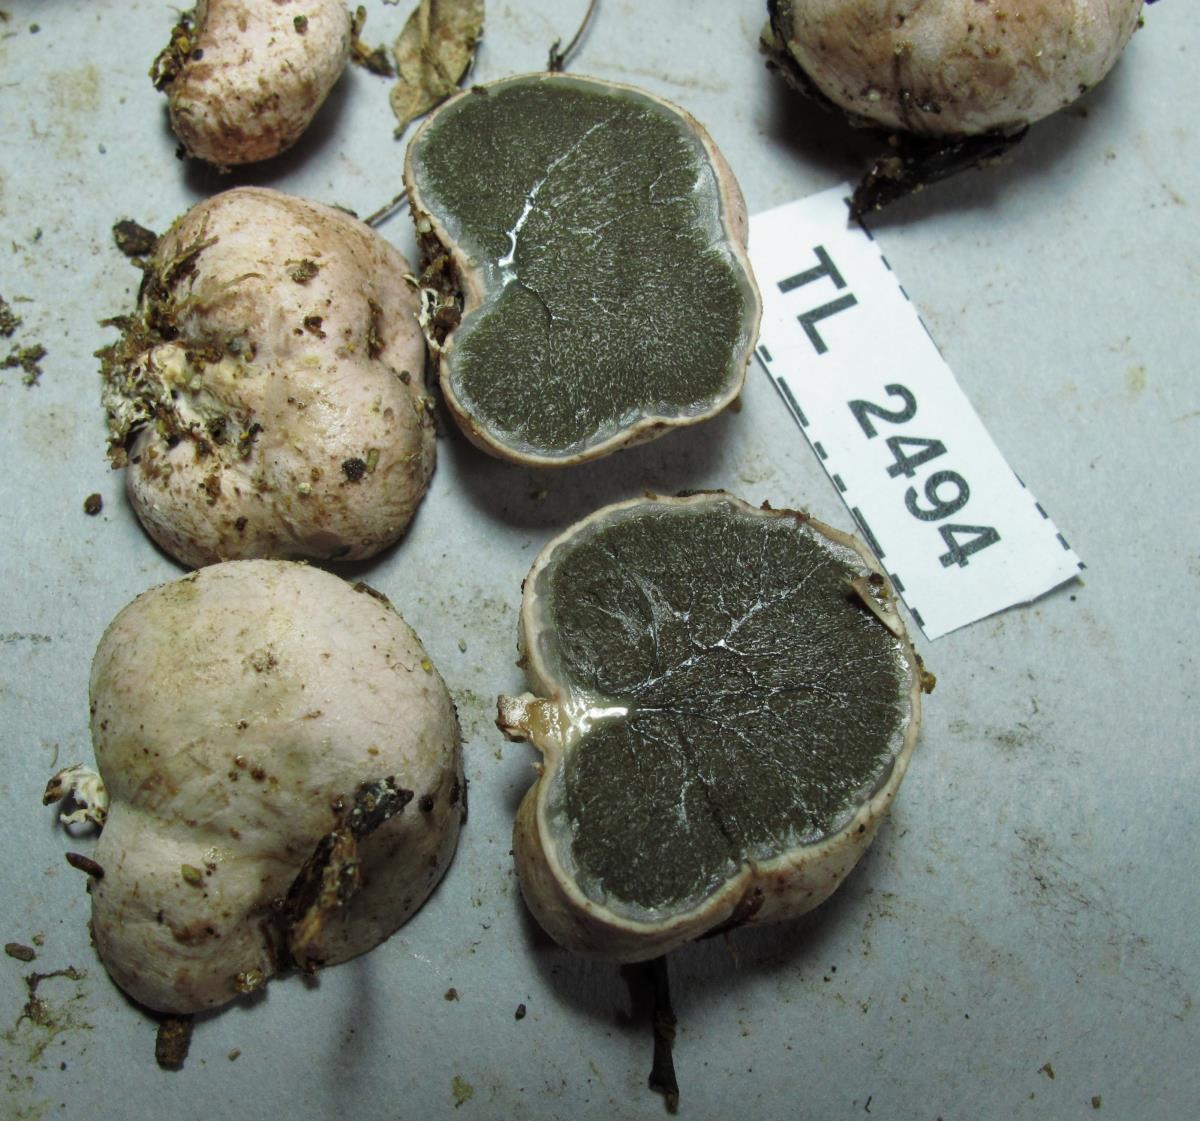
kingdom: Fungi
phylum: Basidiomycota
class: Agaricomycetes
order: Hysterangiales
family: Hysterangiaceae
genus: Hysterangium
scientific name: Hysterangium
